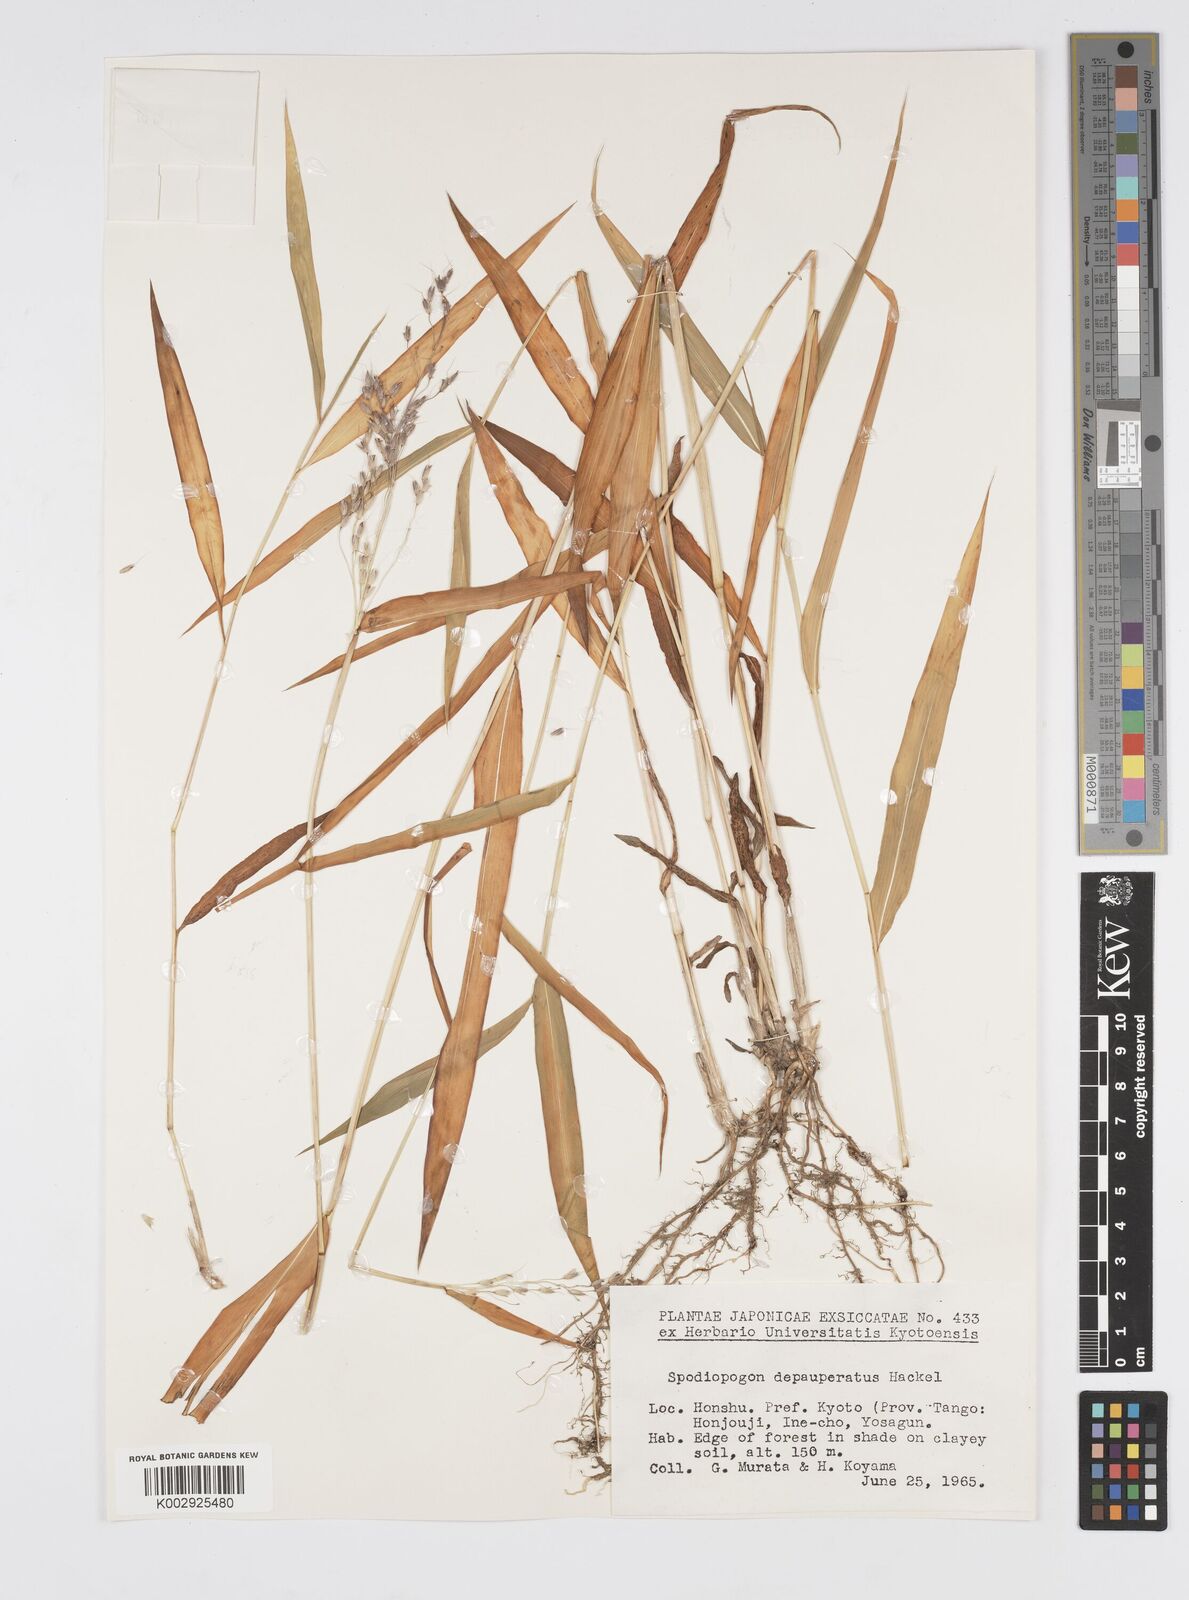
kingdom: Plantae
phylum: Tracheophyta
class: Liliopsida
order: Poales
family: Poaceae
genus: Spodiopogon
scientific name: Spodiopogon depauperatus
